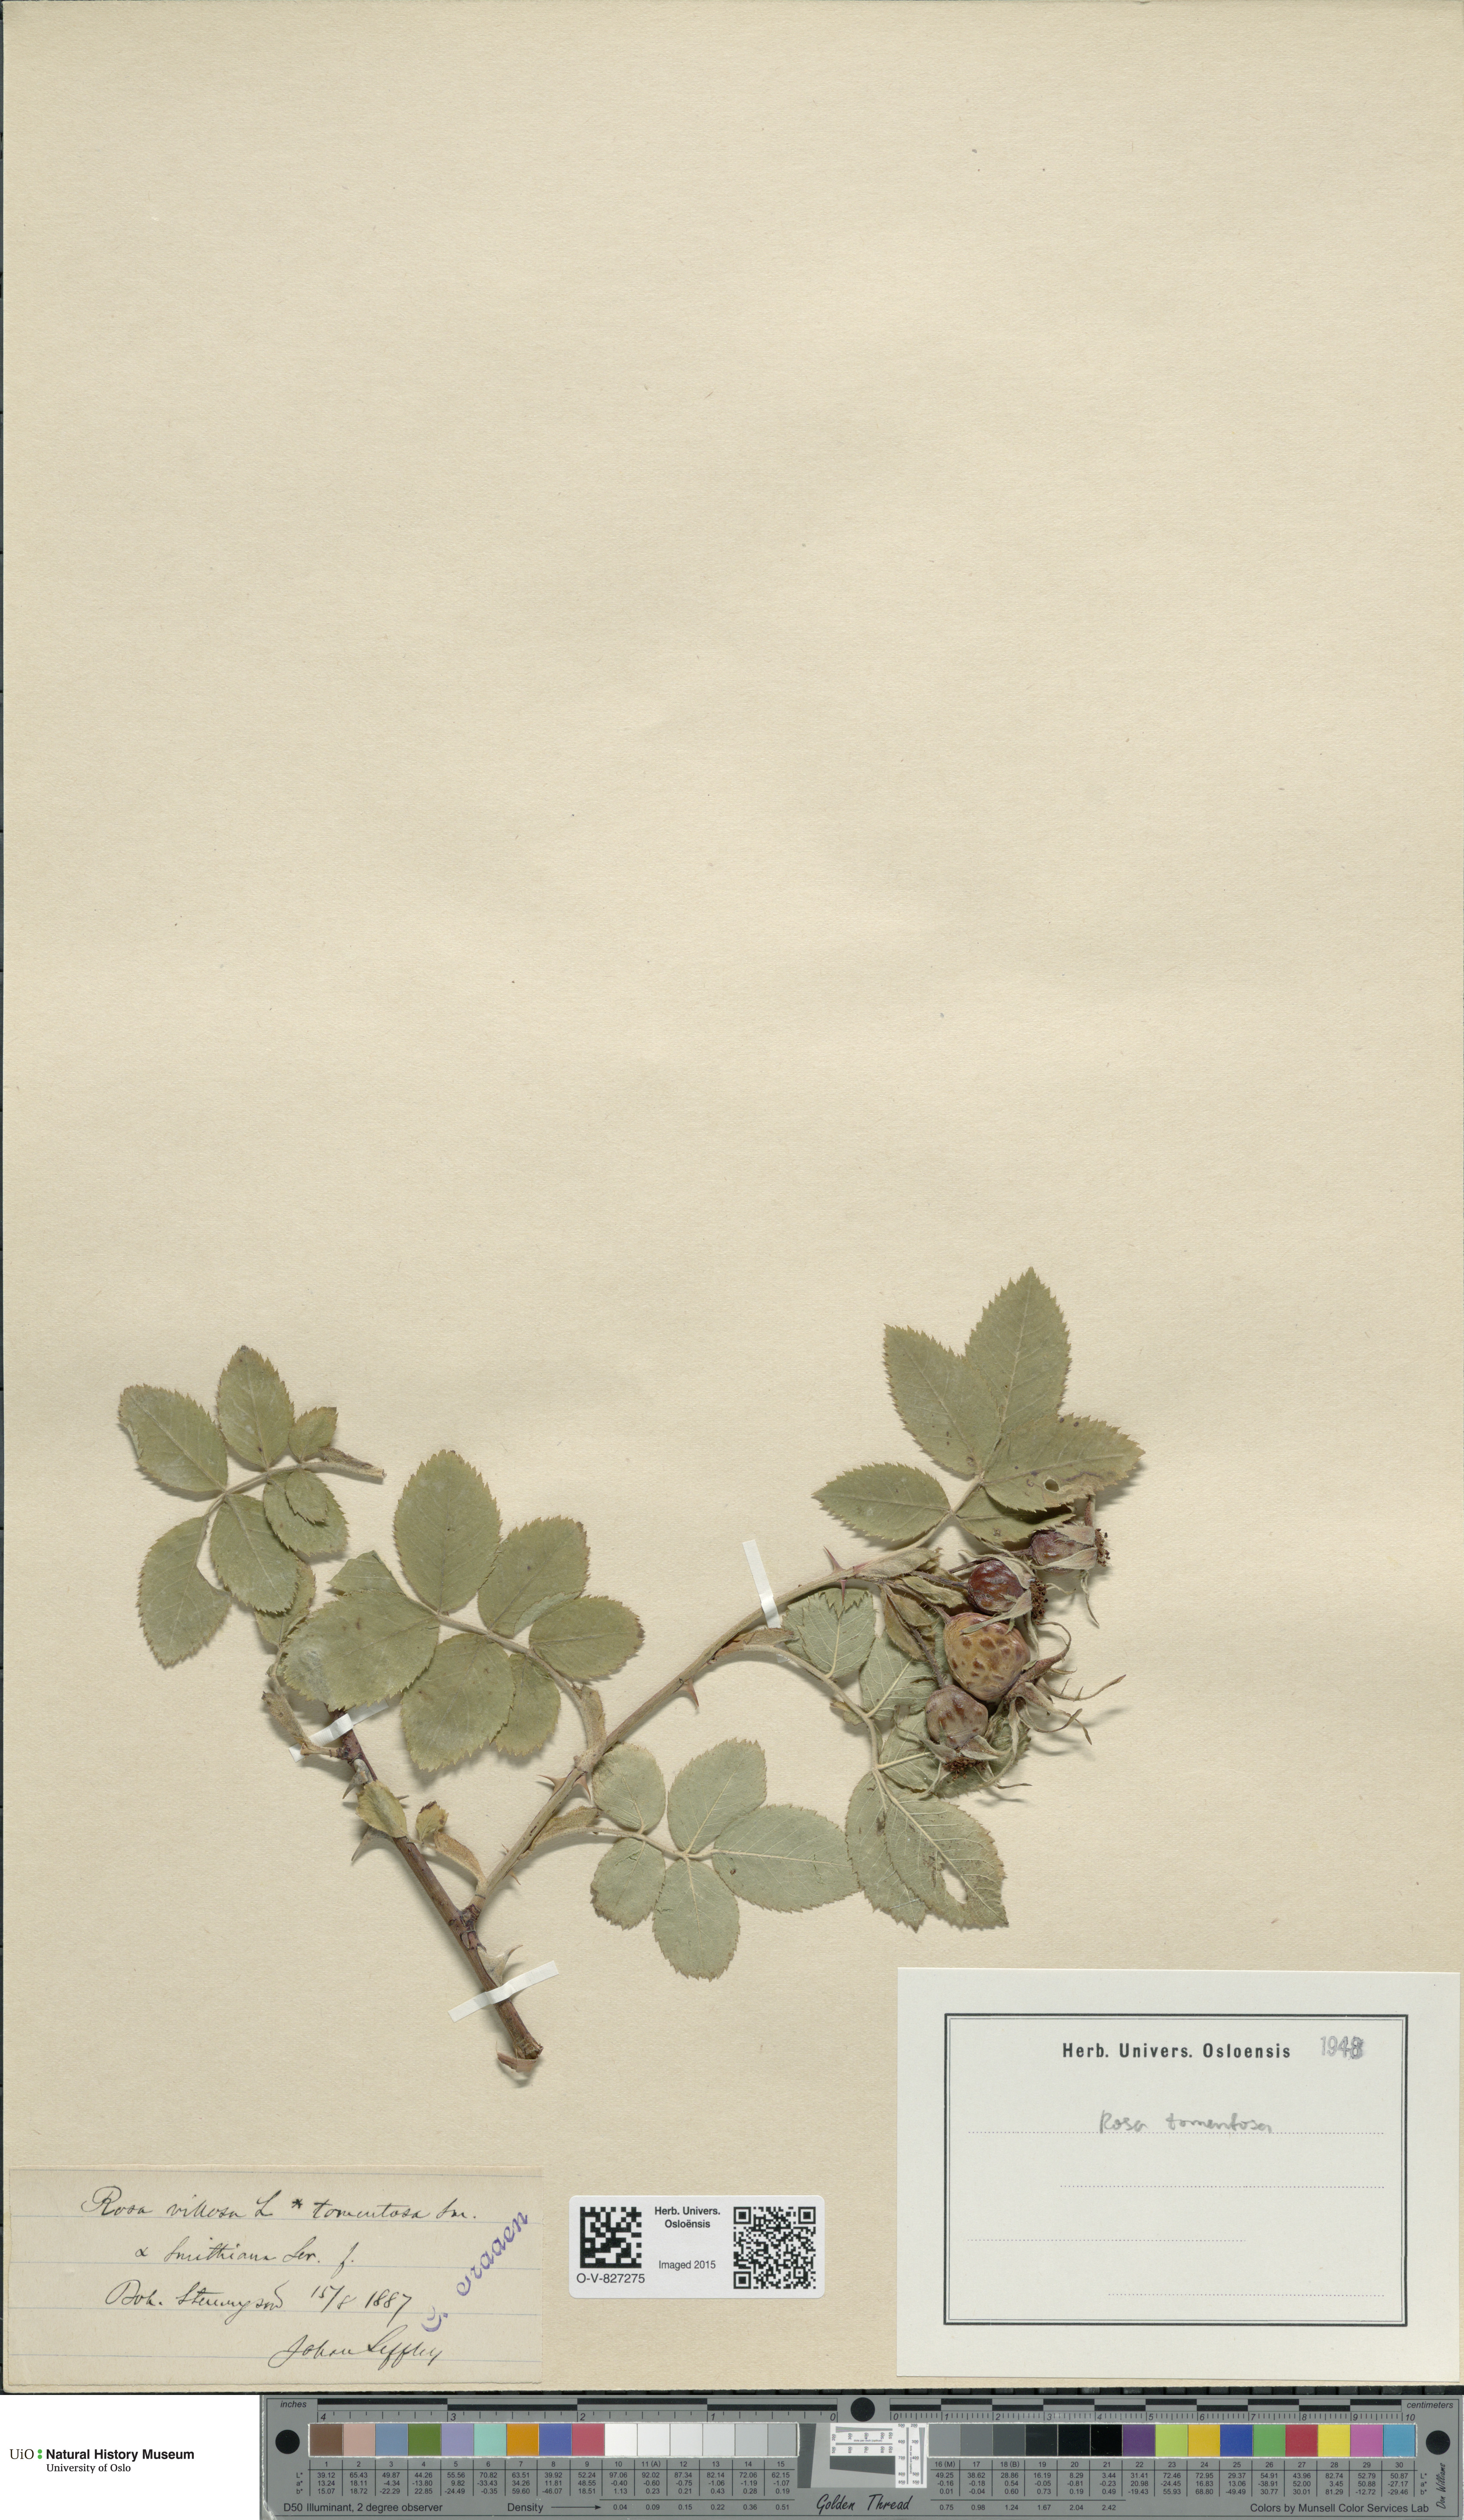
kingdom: Plantae
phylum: Tracheophyta
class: Magnoliopsida
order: Rosales
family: Rosaceae
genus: Rosa
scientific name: Rosa villosa
